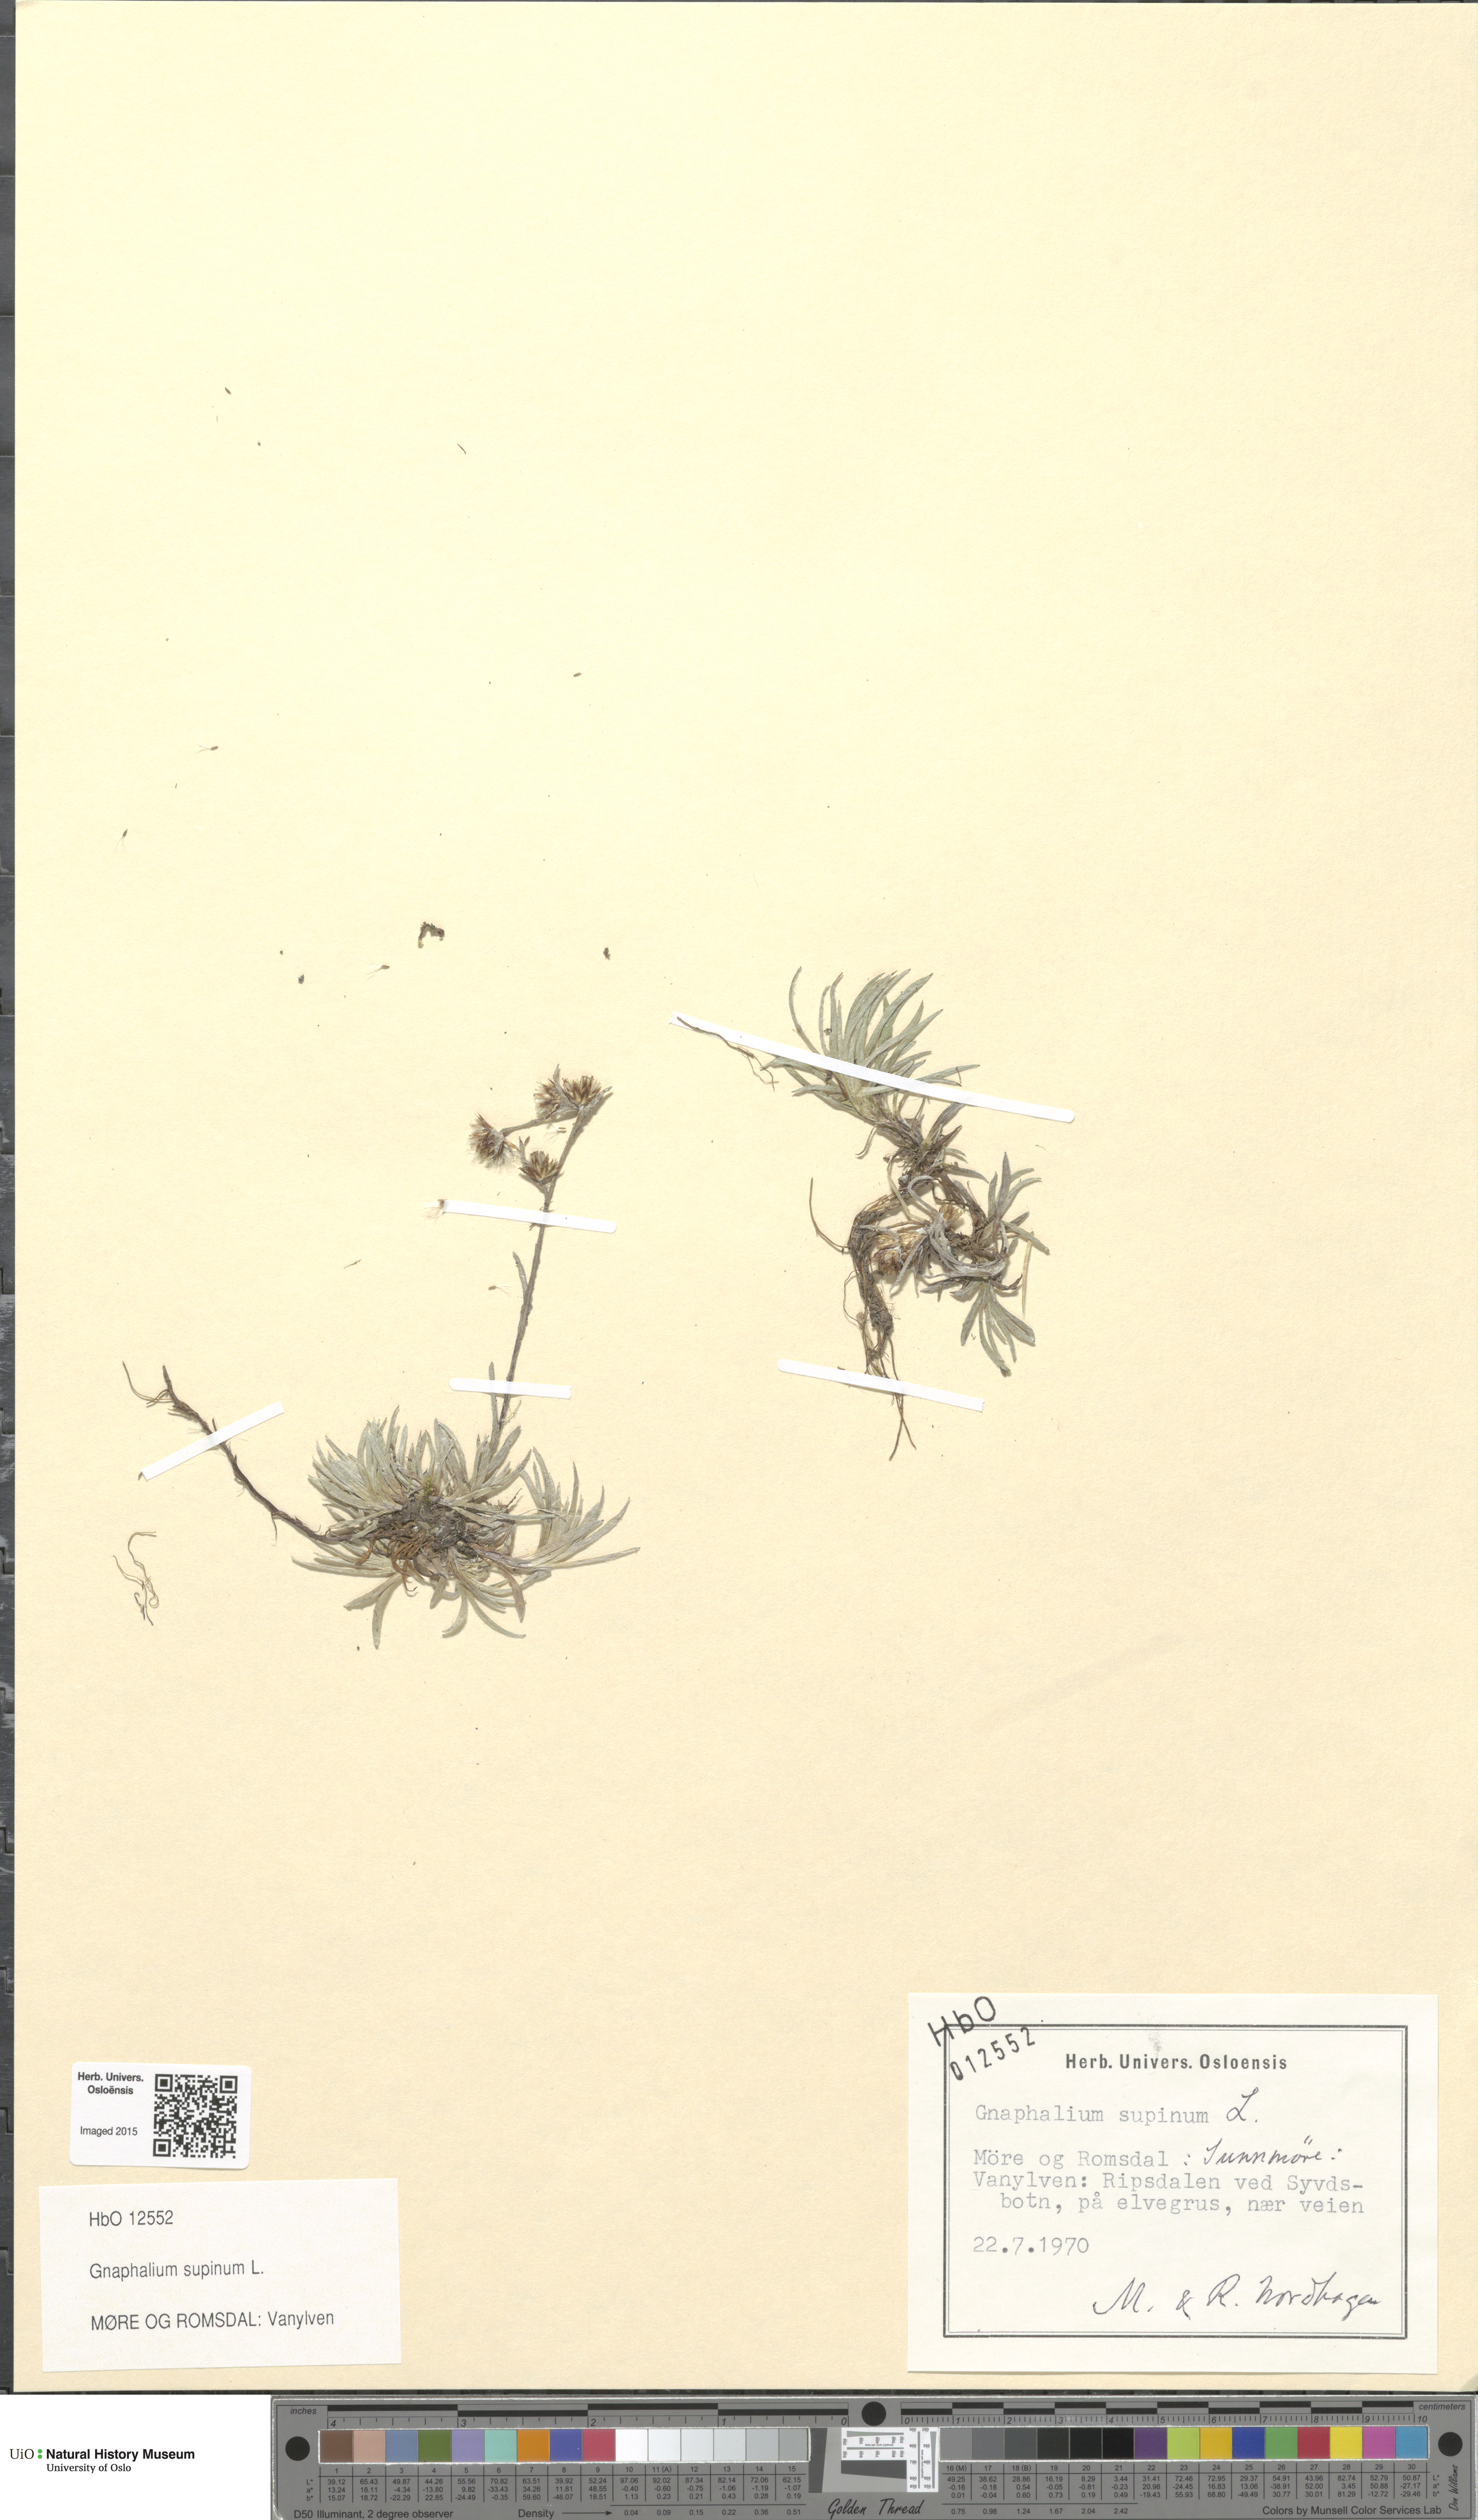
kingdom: Plantae
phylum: Tracheophyta
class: Magnoliopsida
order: Asterales
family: Asteraceae
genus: Omalotheca
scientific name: Omalotheca supina
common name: Alpine arctic-cudweed
